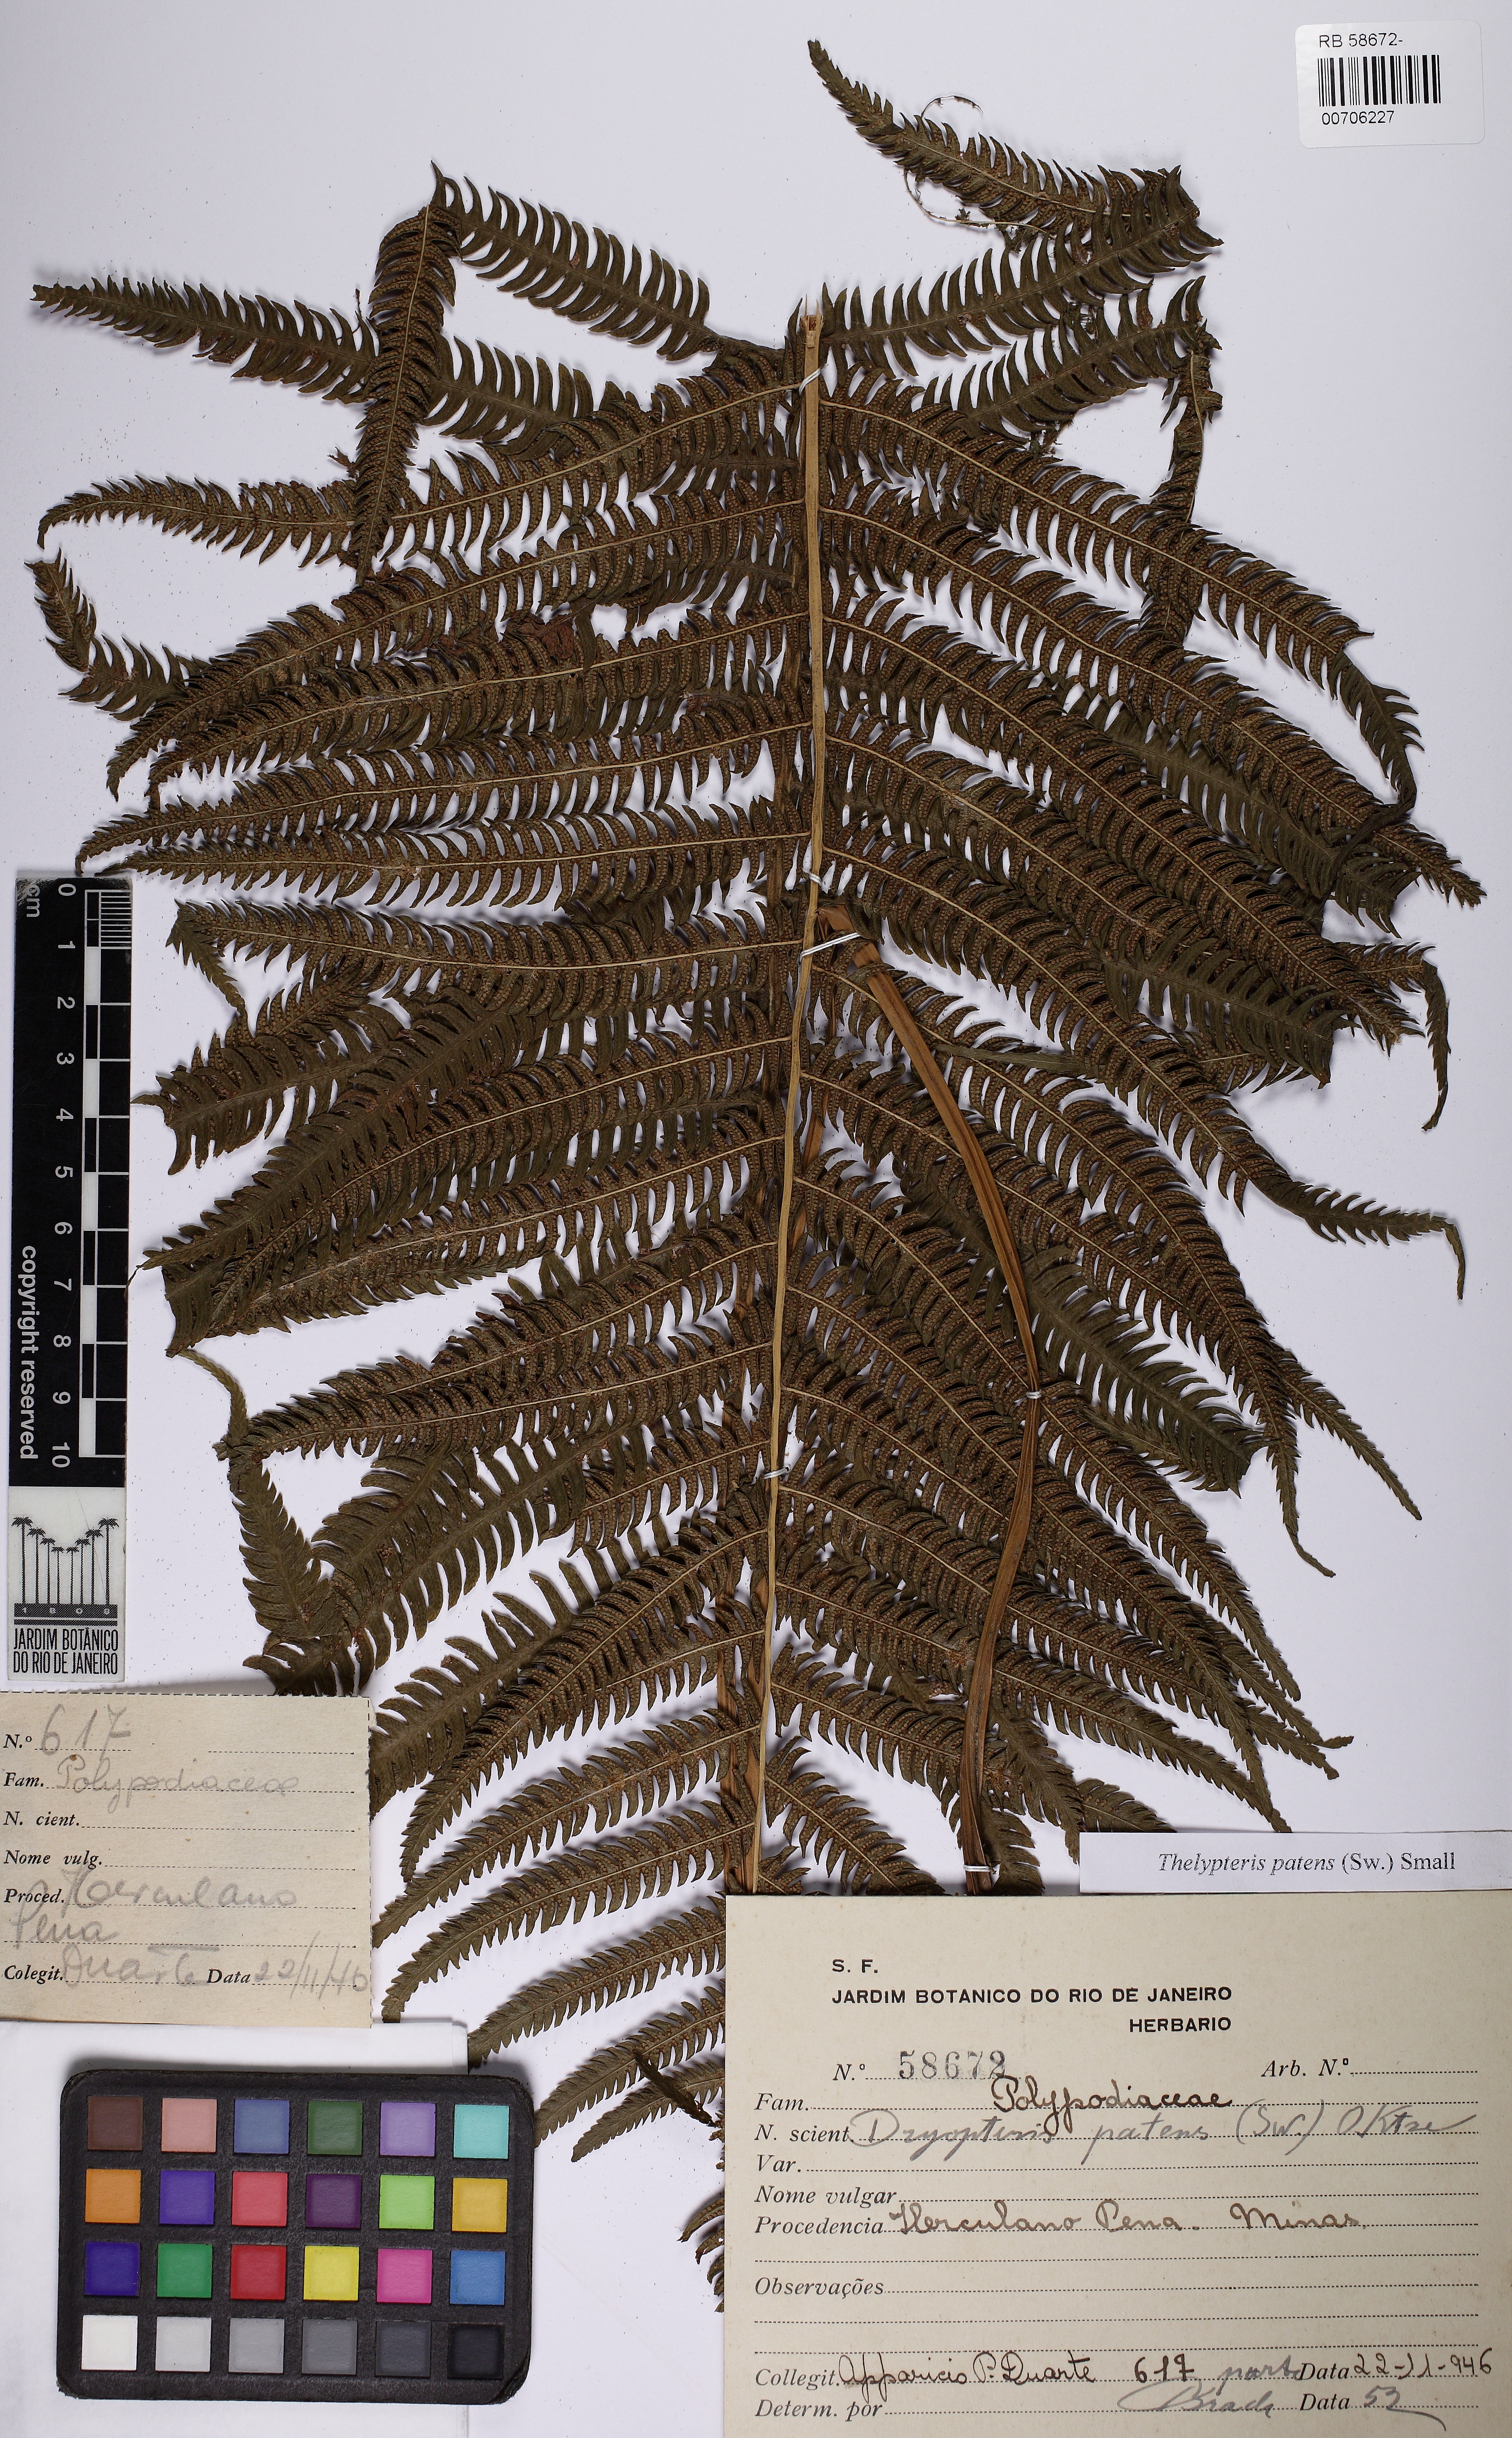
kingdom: Plantae
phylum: Tracheophyta
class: Polypodiopsida
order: Polypodiales
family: Thelypteridaceae
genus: Pelazoneuron
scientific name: Pelazoneuron patens
